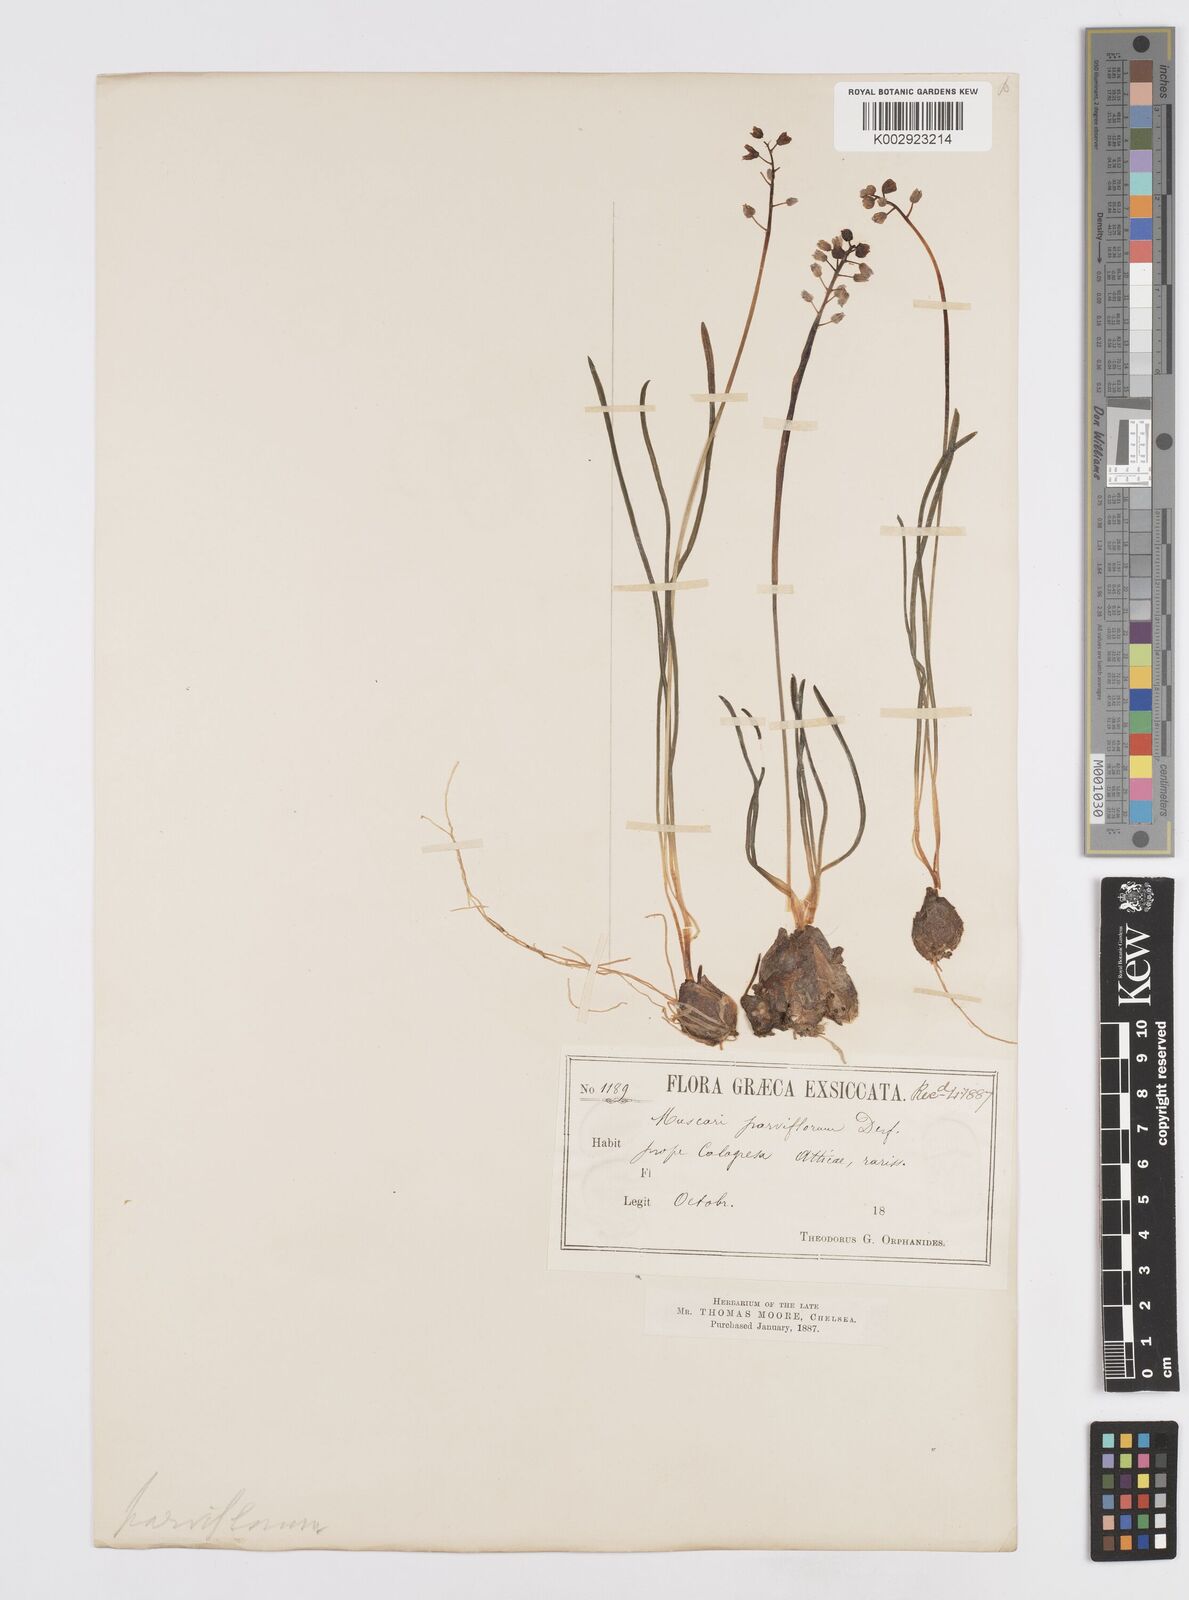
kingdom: Plantae
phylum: Tracheophyta
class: Liliopsida
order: Asparagales
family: Asparagaceae
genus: Muscari
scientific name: Muscari parviflorum
